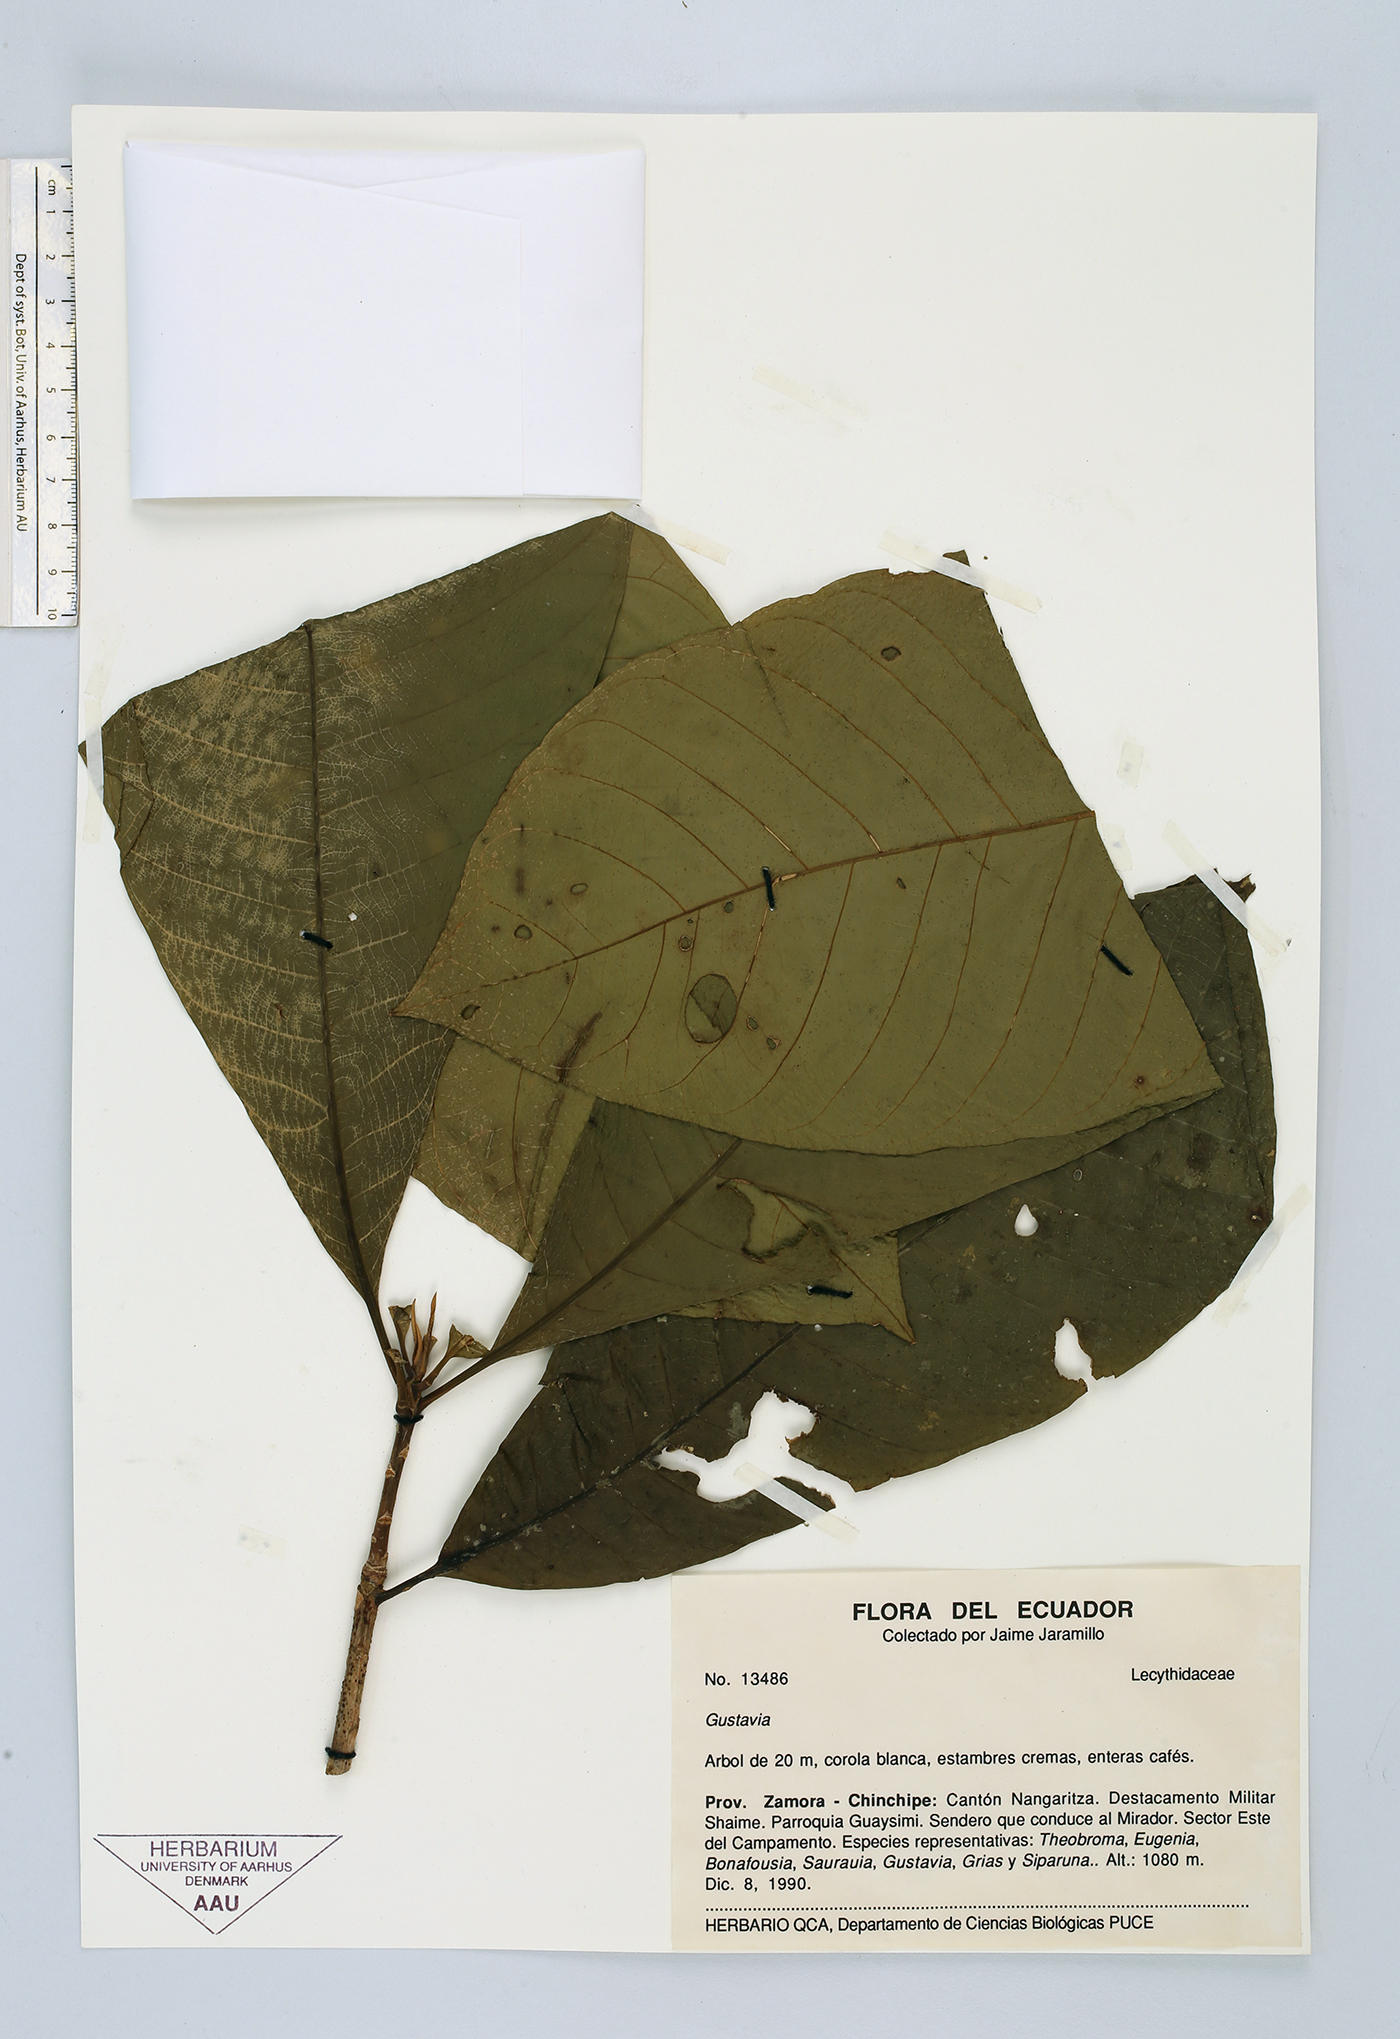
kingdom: Plantae
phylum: Tracheophyta
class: Magnoliopsida
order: Ericales
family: Lecythidaceae
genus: Gustavia
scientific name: Gustavia
